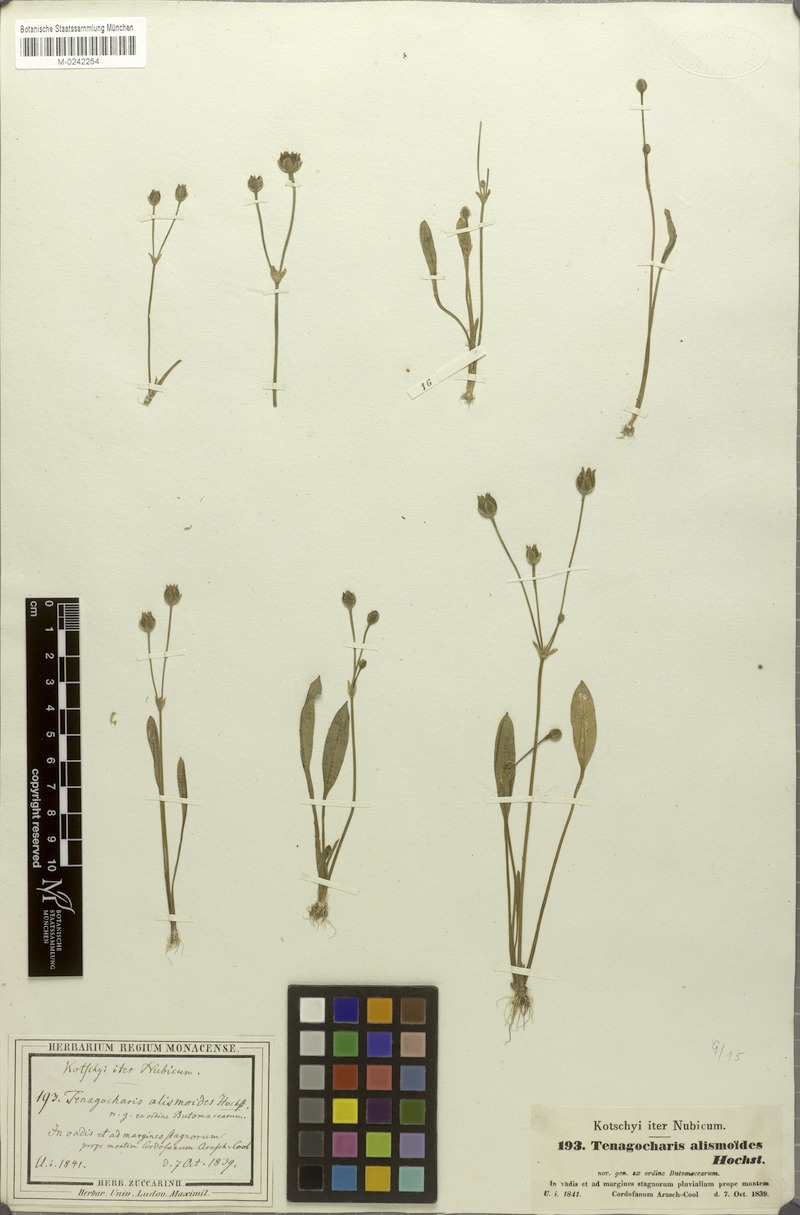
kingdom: Plantae
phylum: Tracheophyta
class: Liliopsida
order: Alismatales
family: Alismataceae
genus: Butomopsis
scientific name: Butomopsis latifolia
